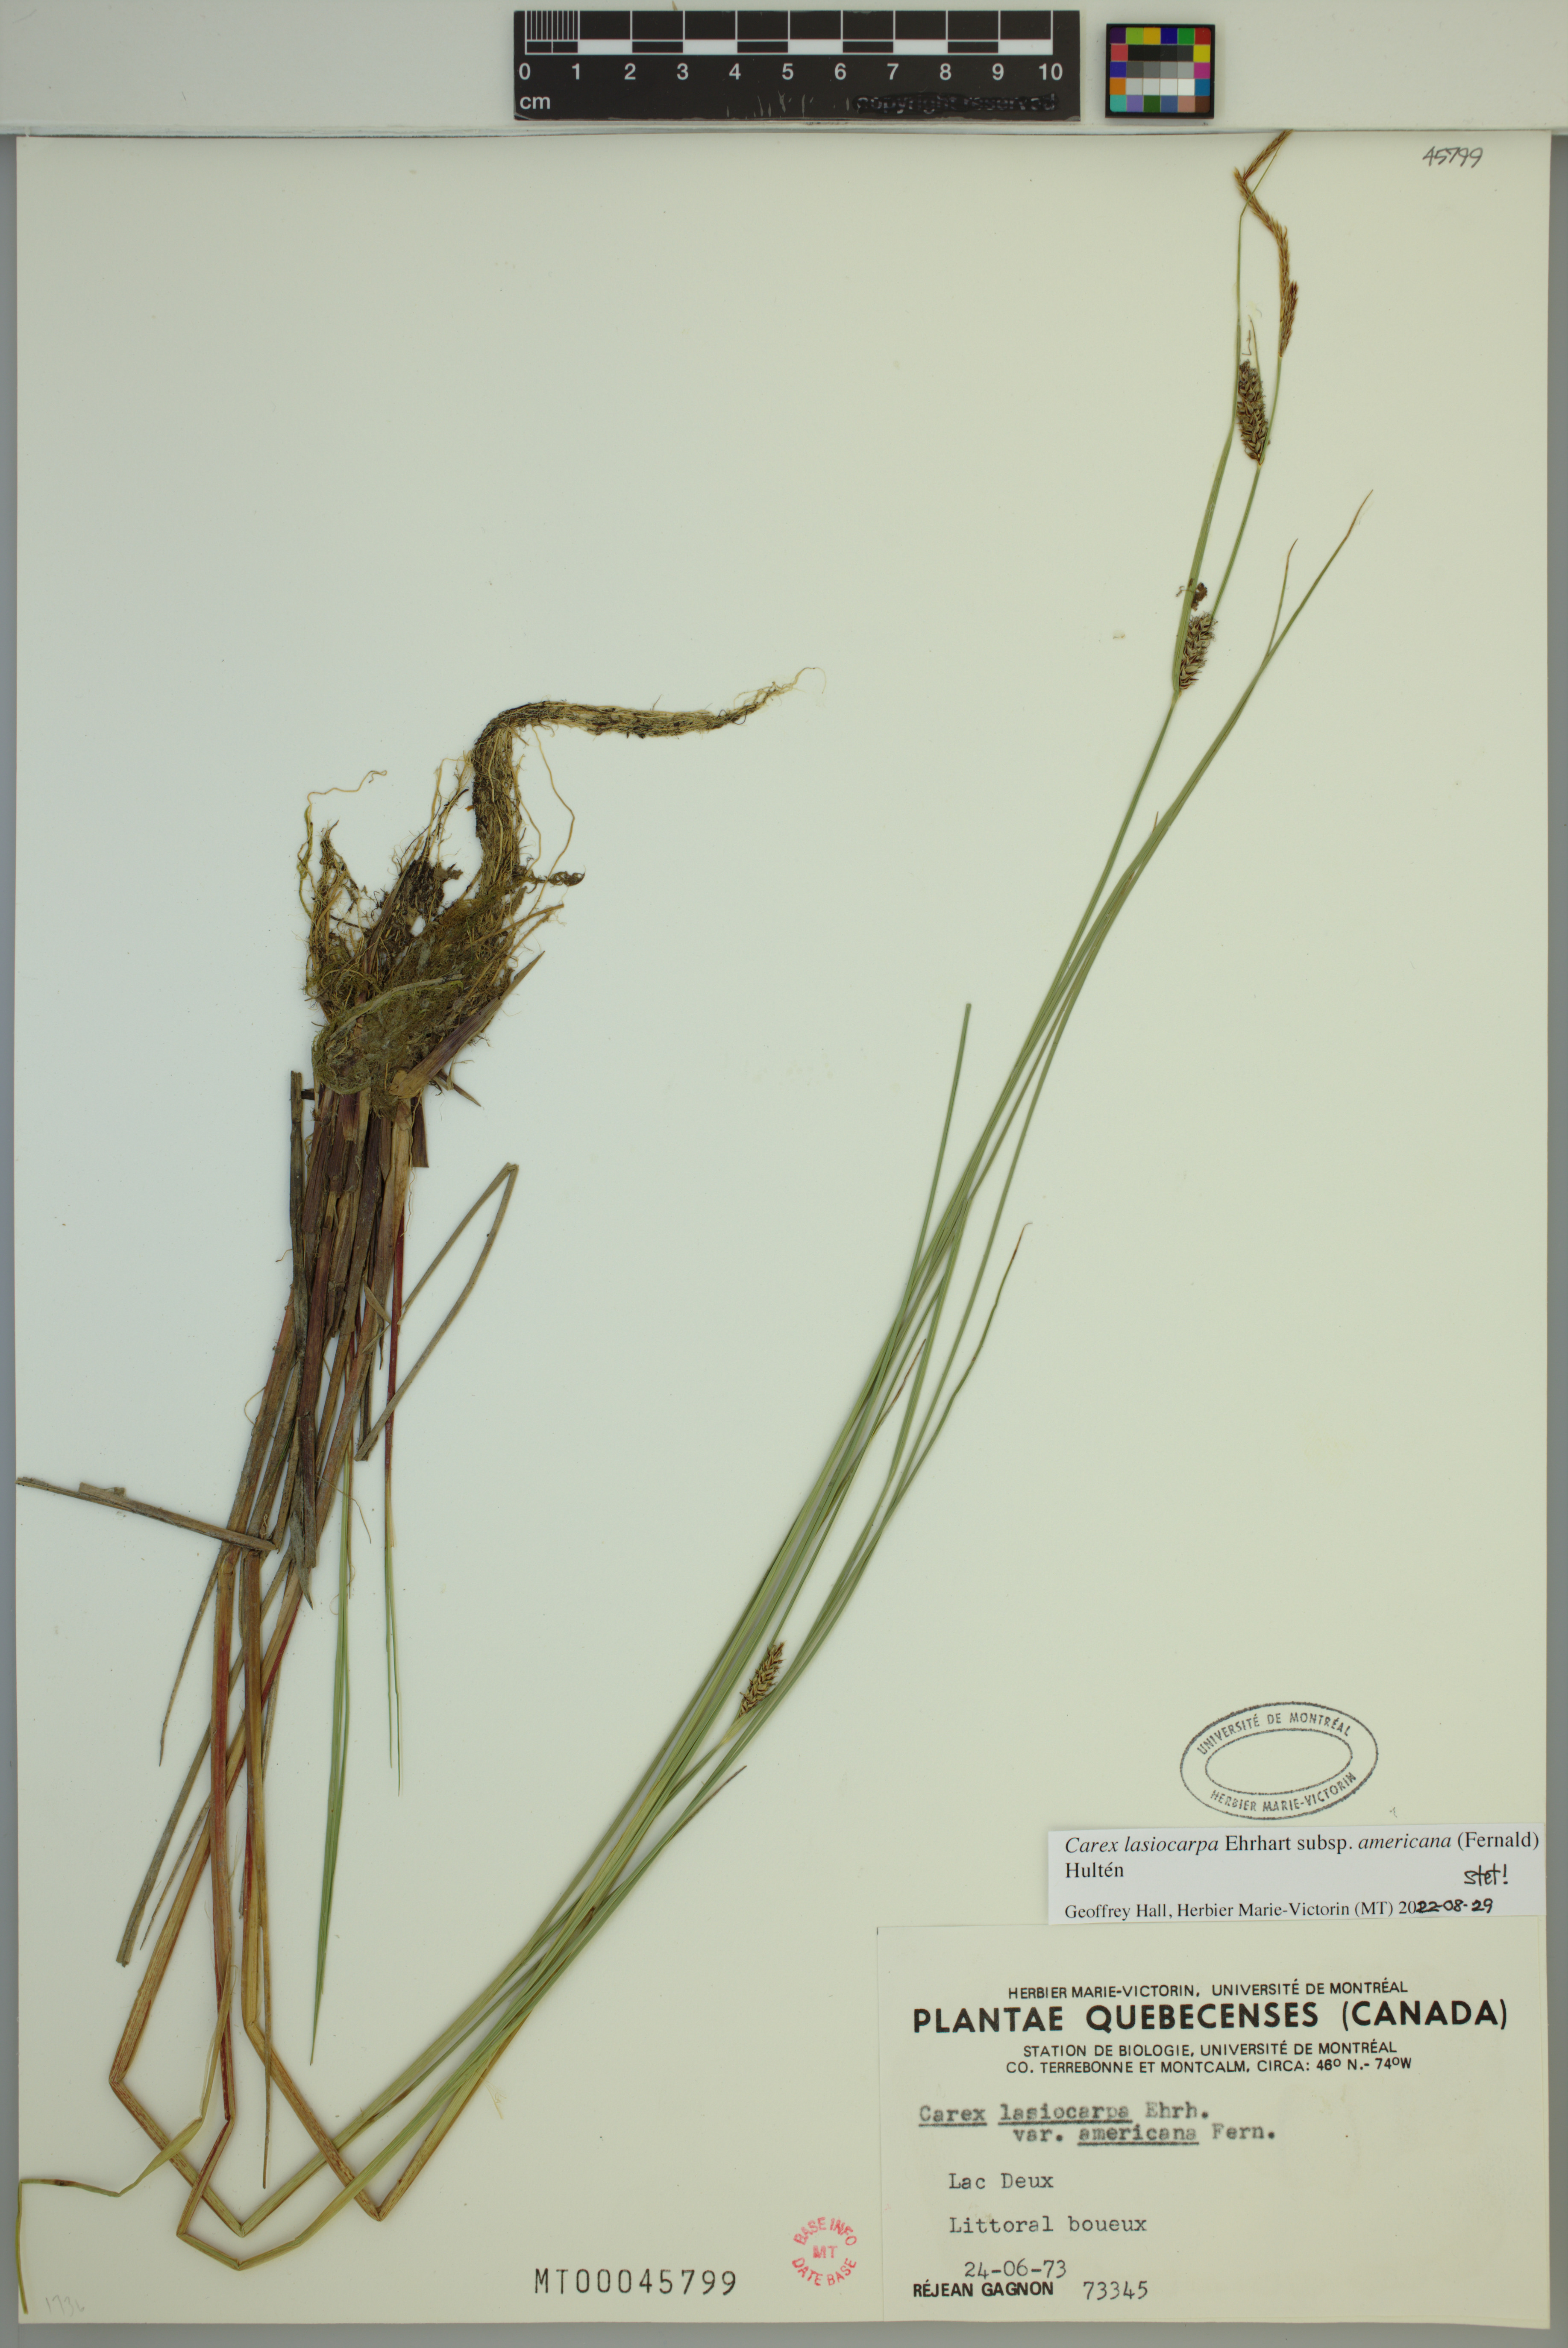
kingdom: Plantae
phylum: Tracheophyta
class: Liliopsida
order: Poales
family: Cyperaceae
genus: Carex
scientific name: Carex lasiocarpa
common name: Slender sedge
